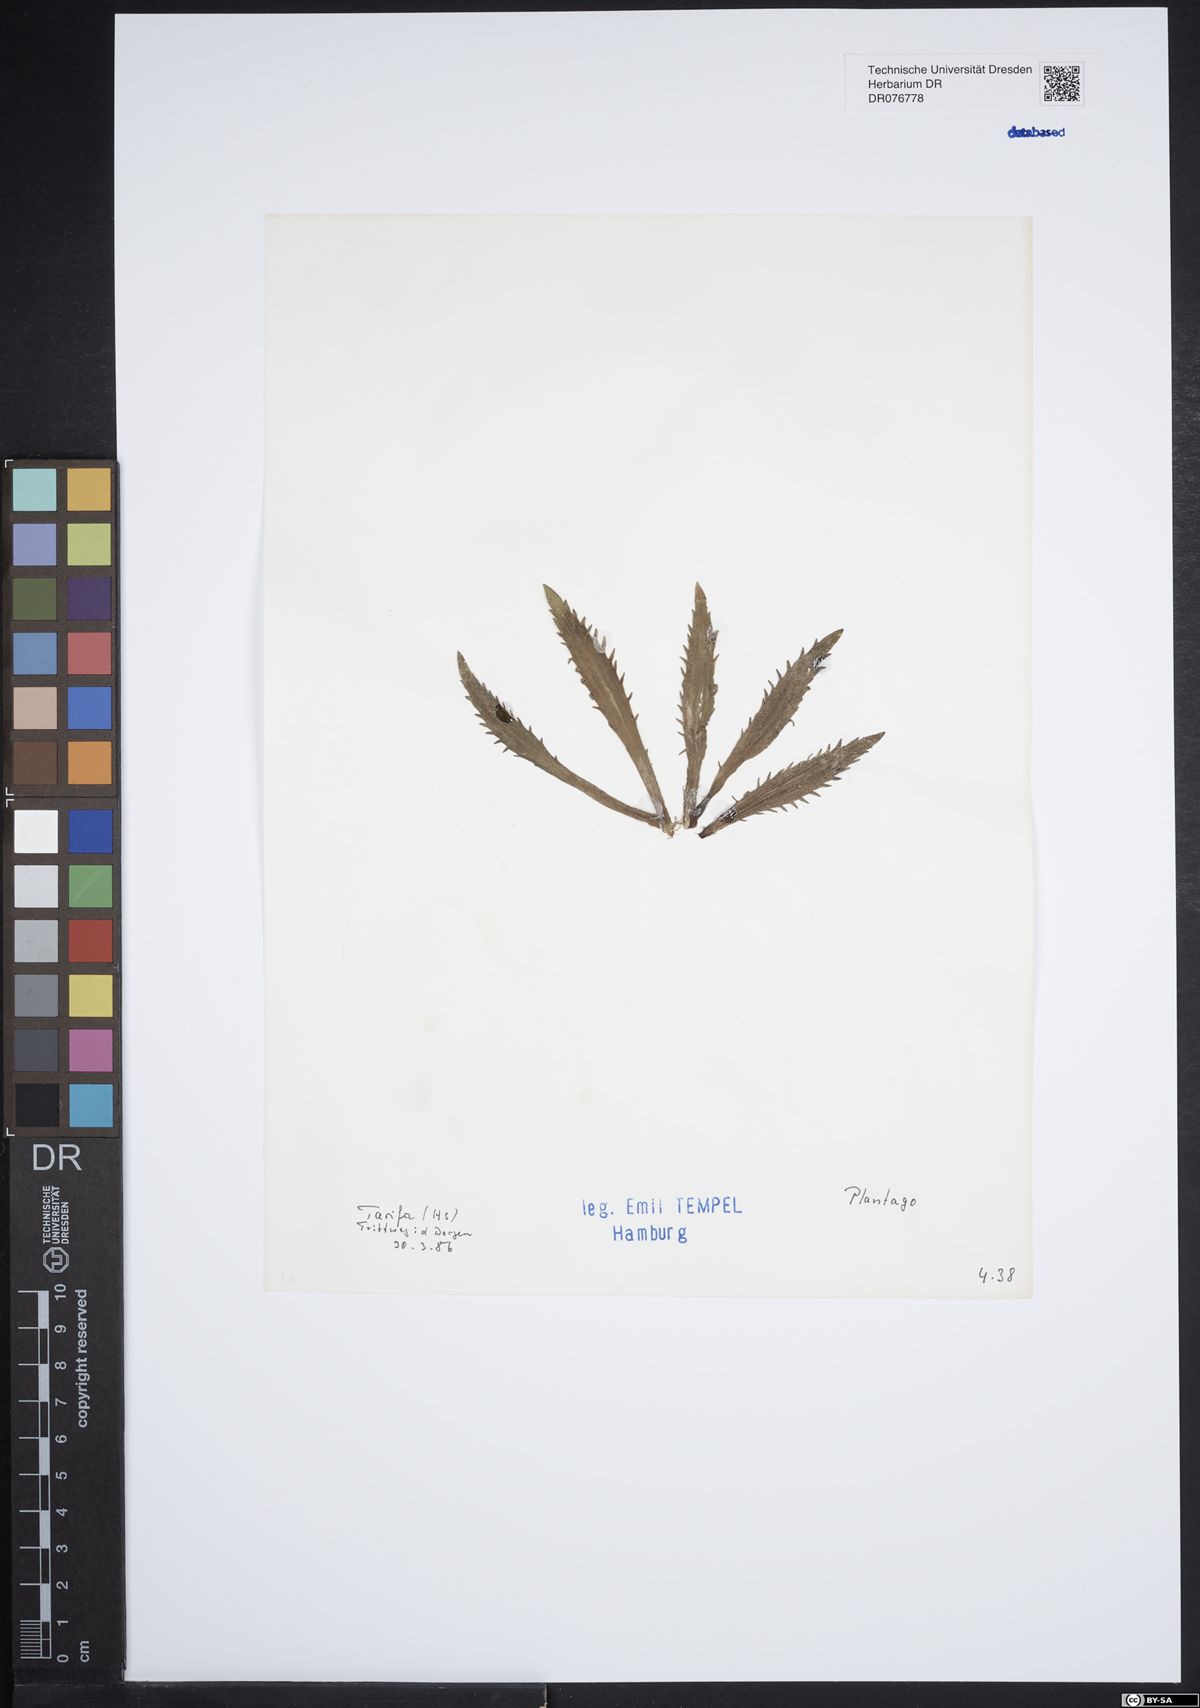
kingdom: Plantae
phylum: Tracheophyta
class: Magnoliopsida
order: Lamiales
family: Plantaginaceae
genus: Plantago
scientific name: Plantago
